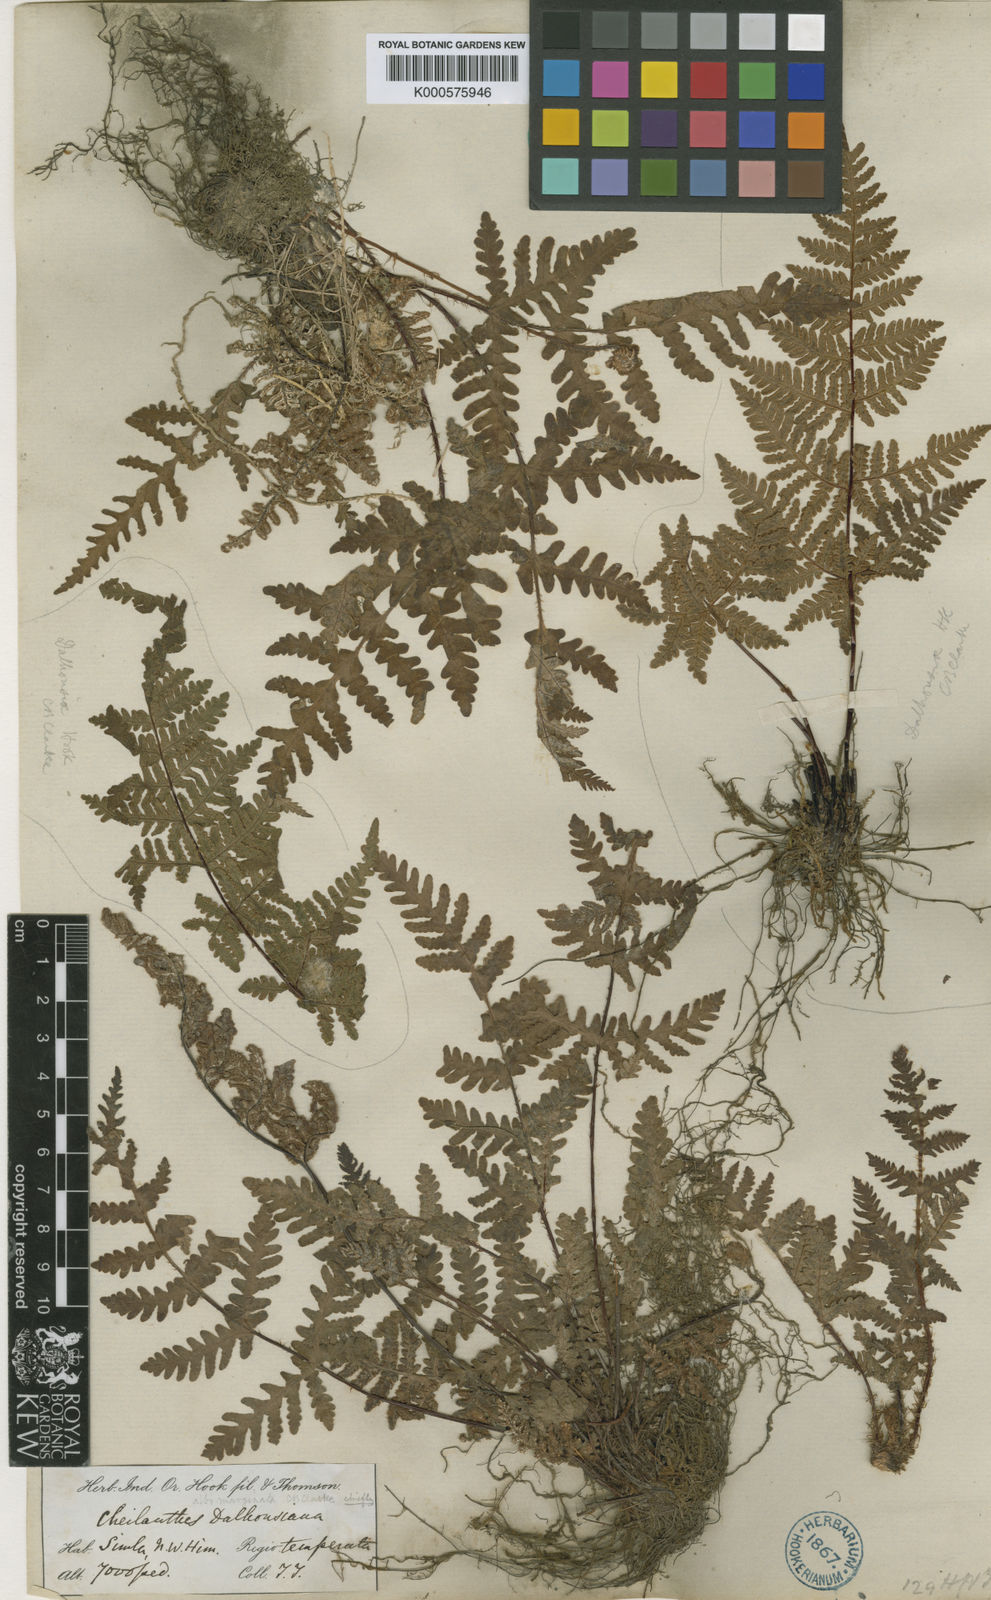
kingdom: Plantae
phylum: Tracheophyta
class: Polypodiopsida
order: Polypodiales
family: Pteridaceae
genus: Aleuritopteris
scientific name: Aleuritopteris albomarginata
